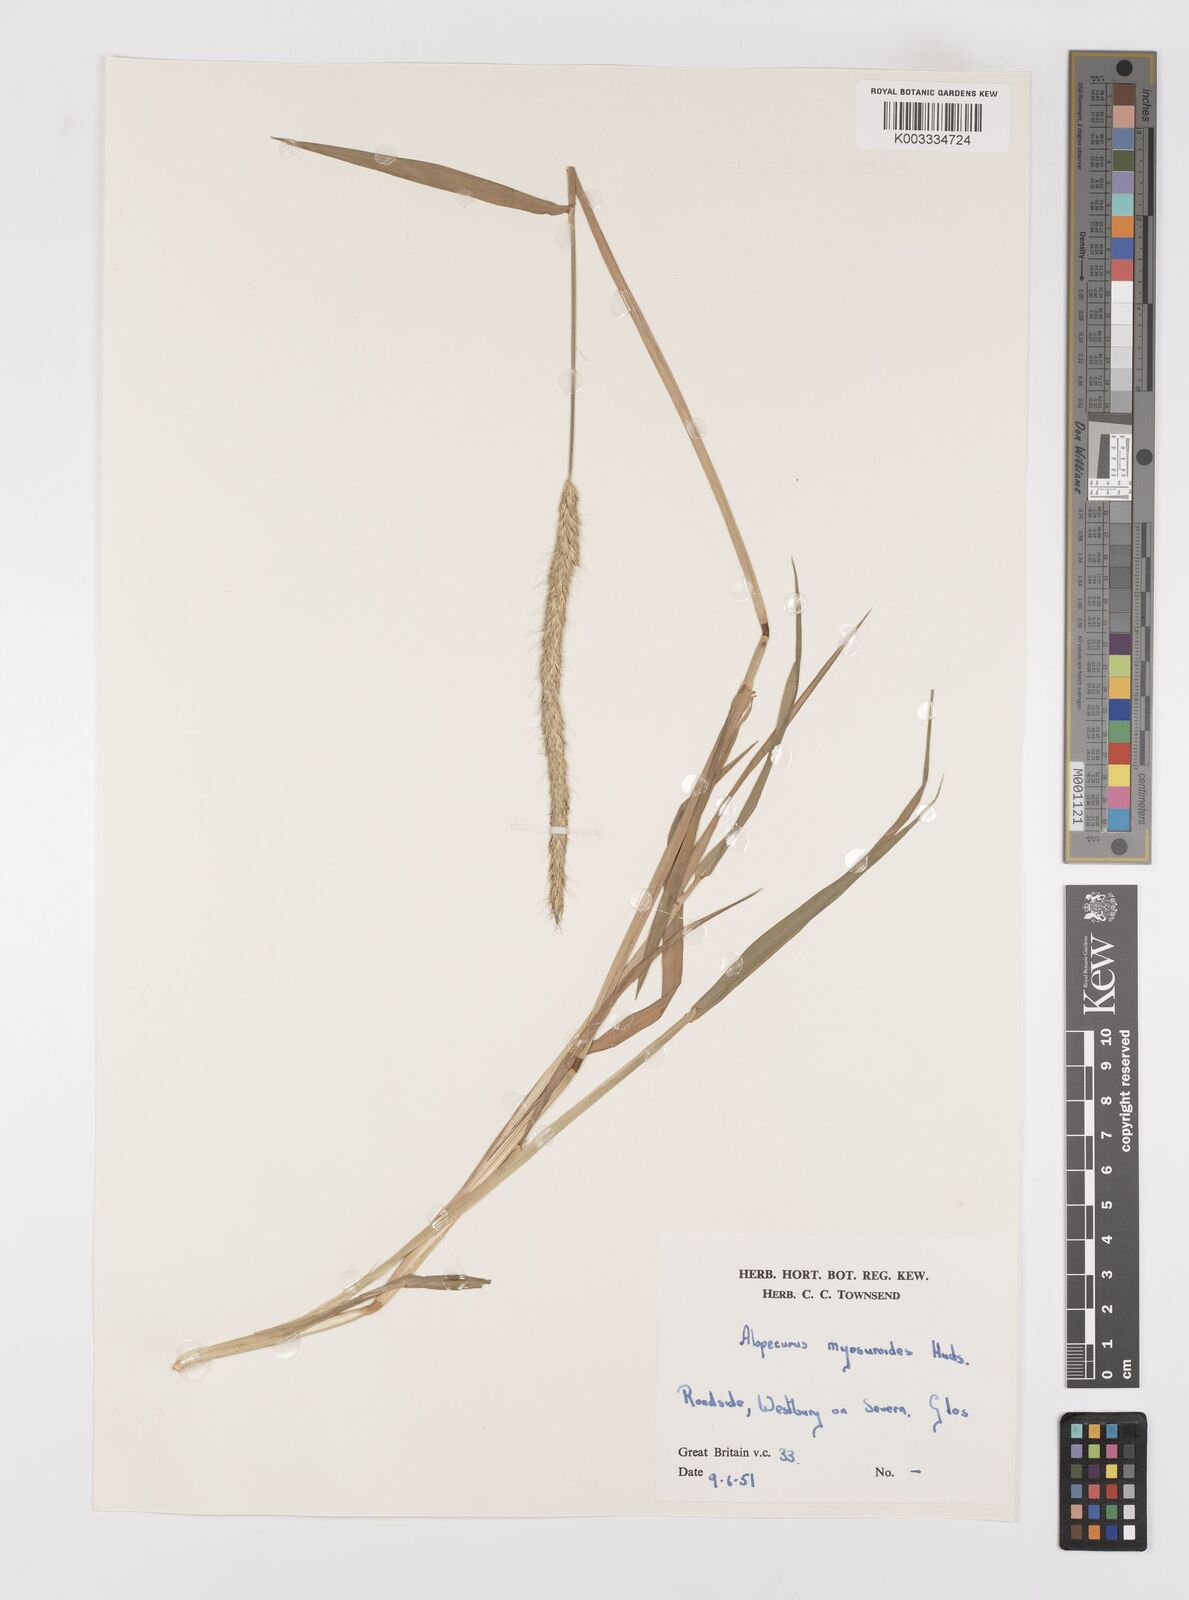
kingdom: Plantae
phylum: Tracheophyta
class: Liliopsida
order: Poales
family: Poaceae
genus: Alopecurus
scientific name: Alopecurus myosuroides
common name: Black-grass
